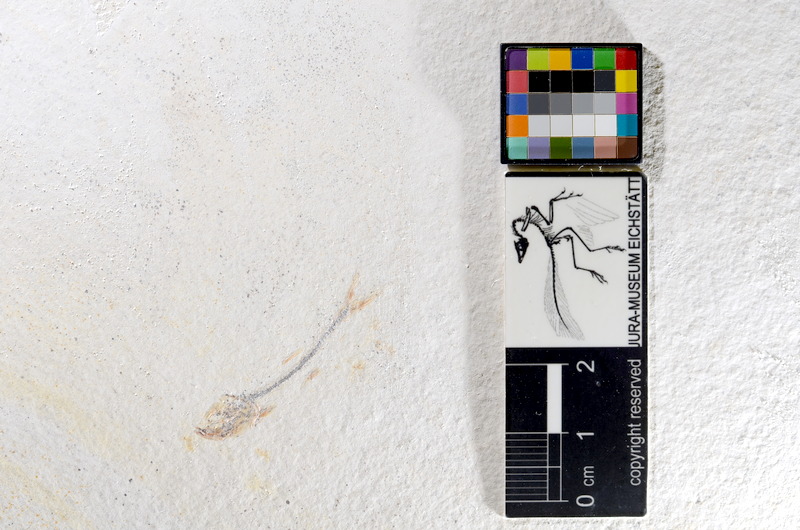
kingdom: Animalia
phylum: Chordata
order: Salmoniformes
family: Orthogonikleithridae
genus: Orthogonikleithrus
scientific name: Orthogonikleithrus hoelli
